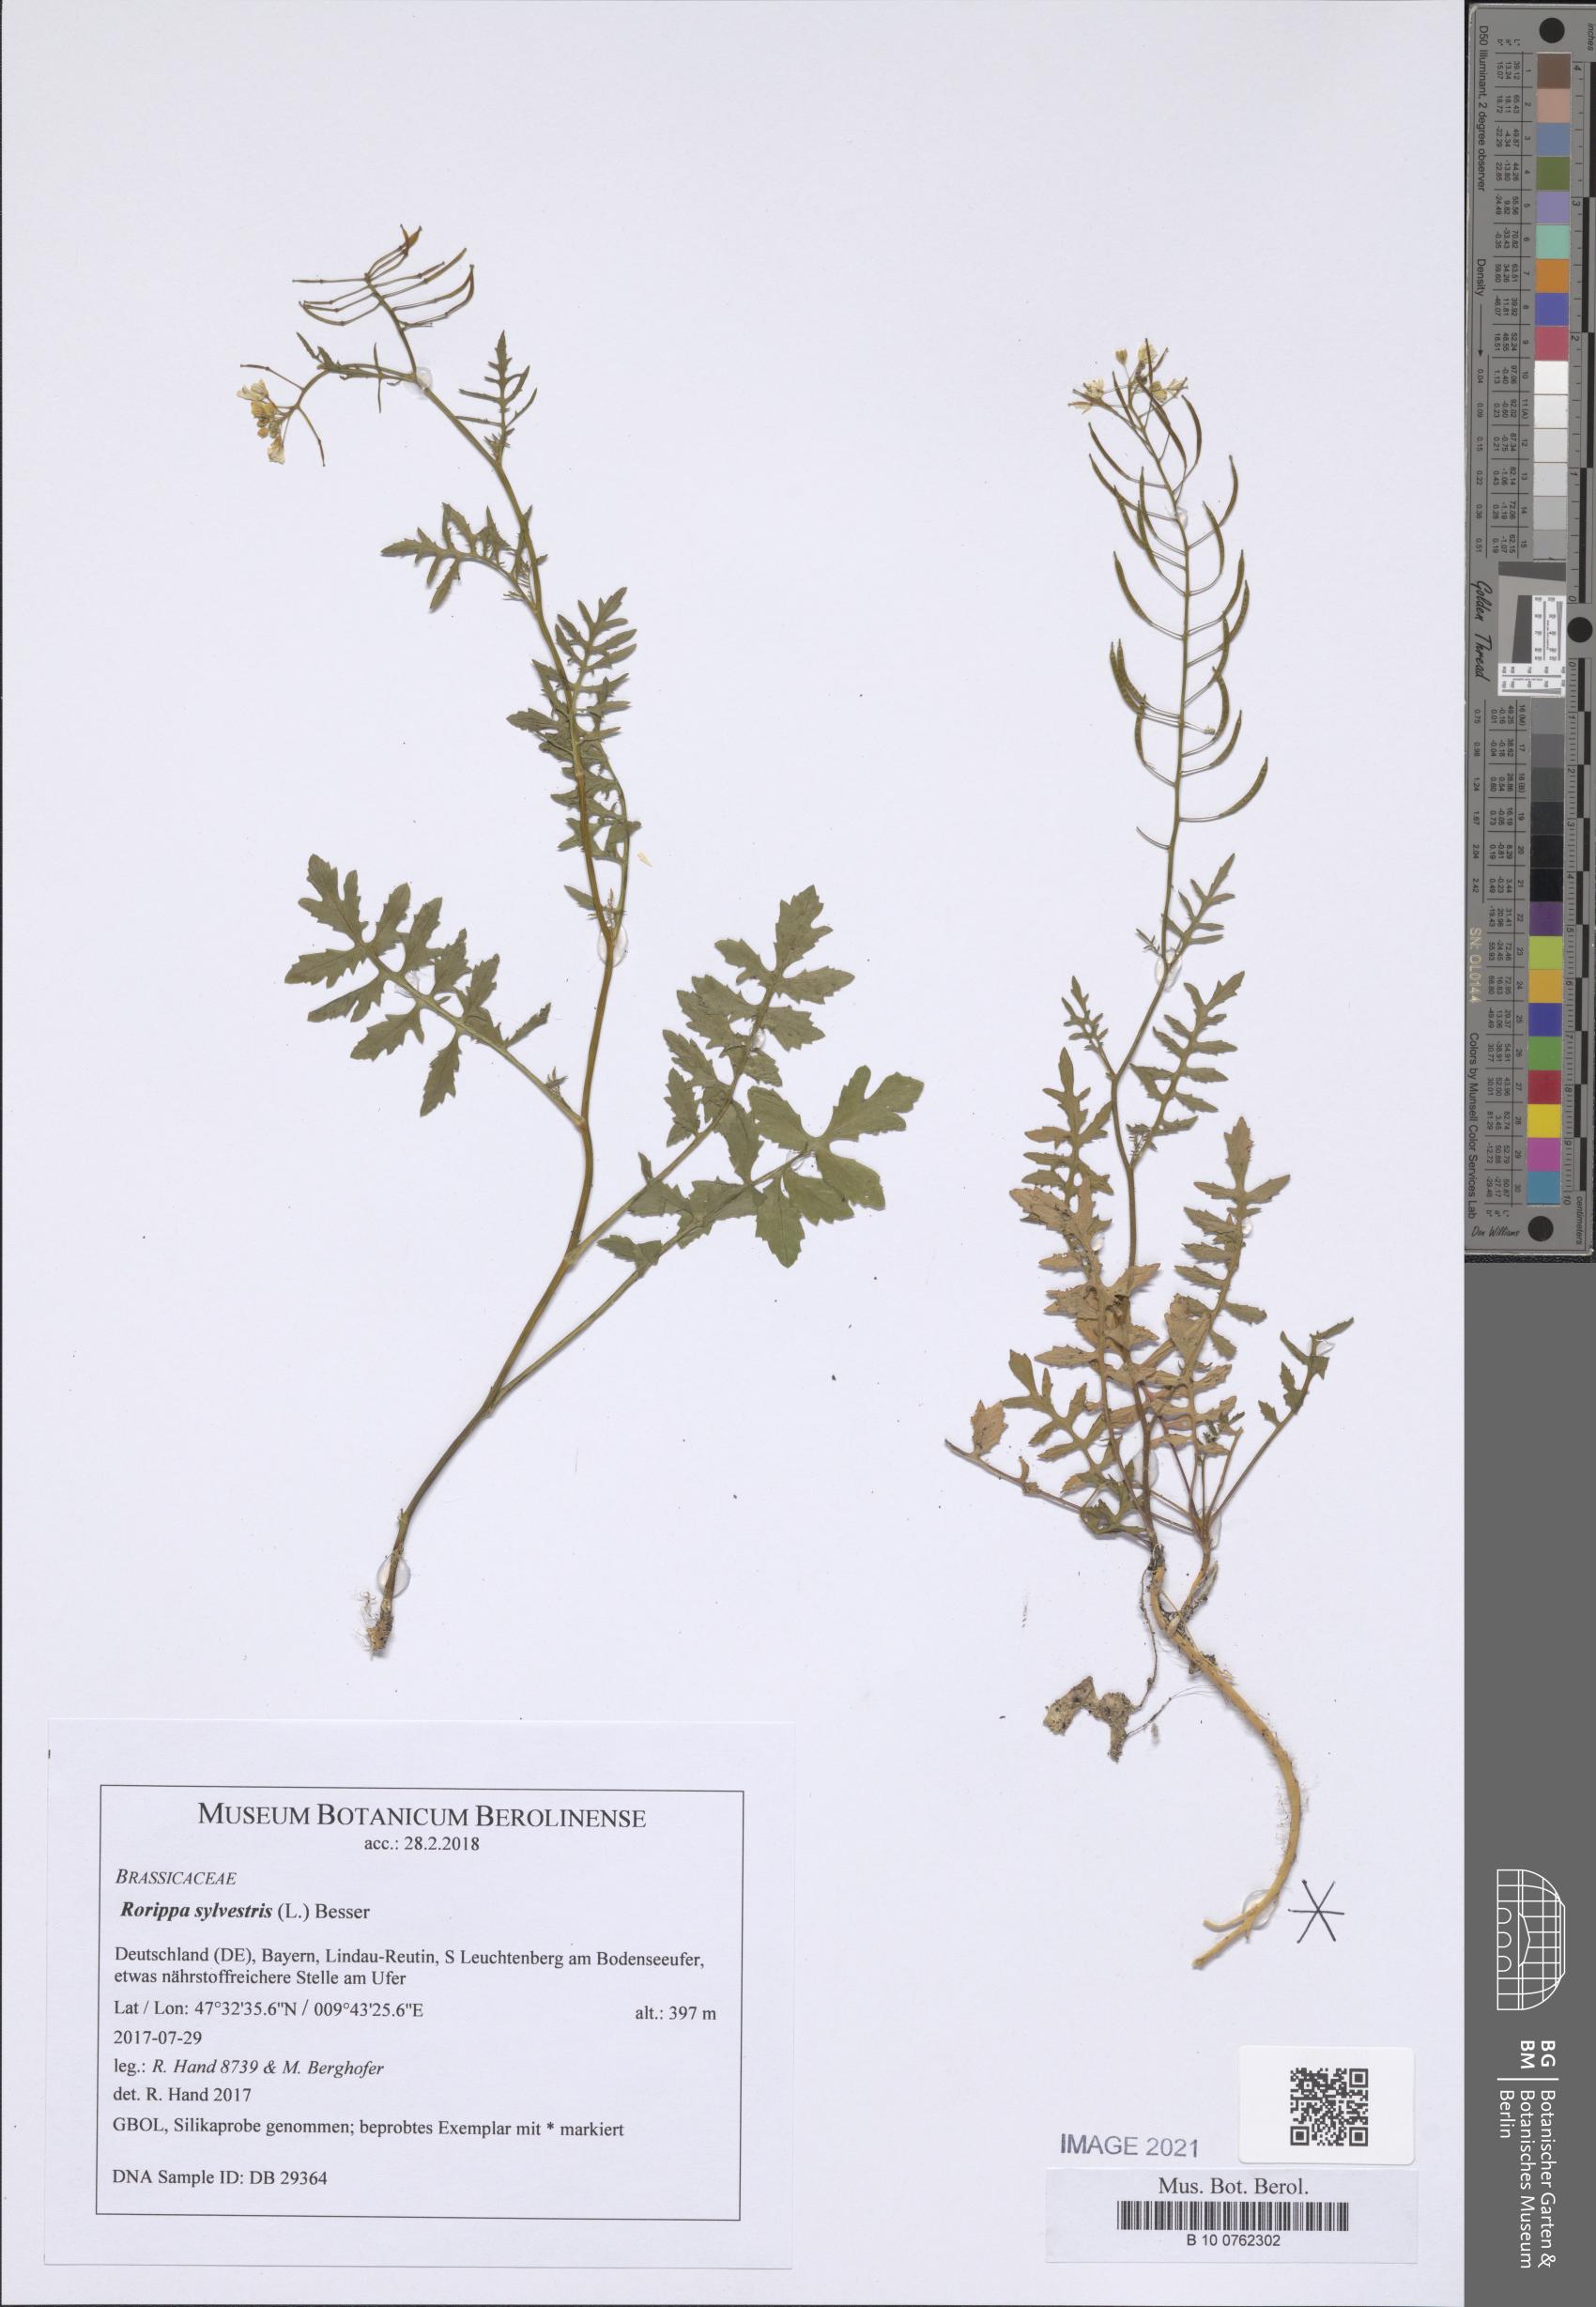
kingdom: Plantae
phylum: Tracheophyta
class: Magnoliopsida
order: Brassicales
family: Brassicaceae
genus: Rorippa
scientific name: Rorippa sylvestris
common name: Creeping yellowcress
